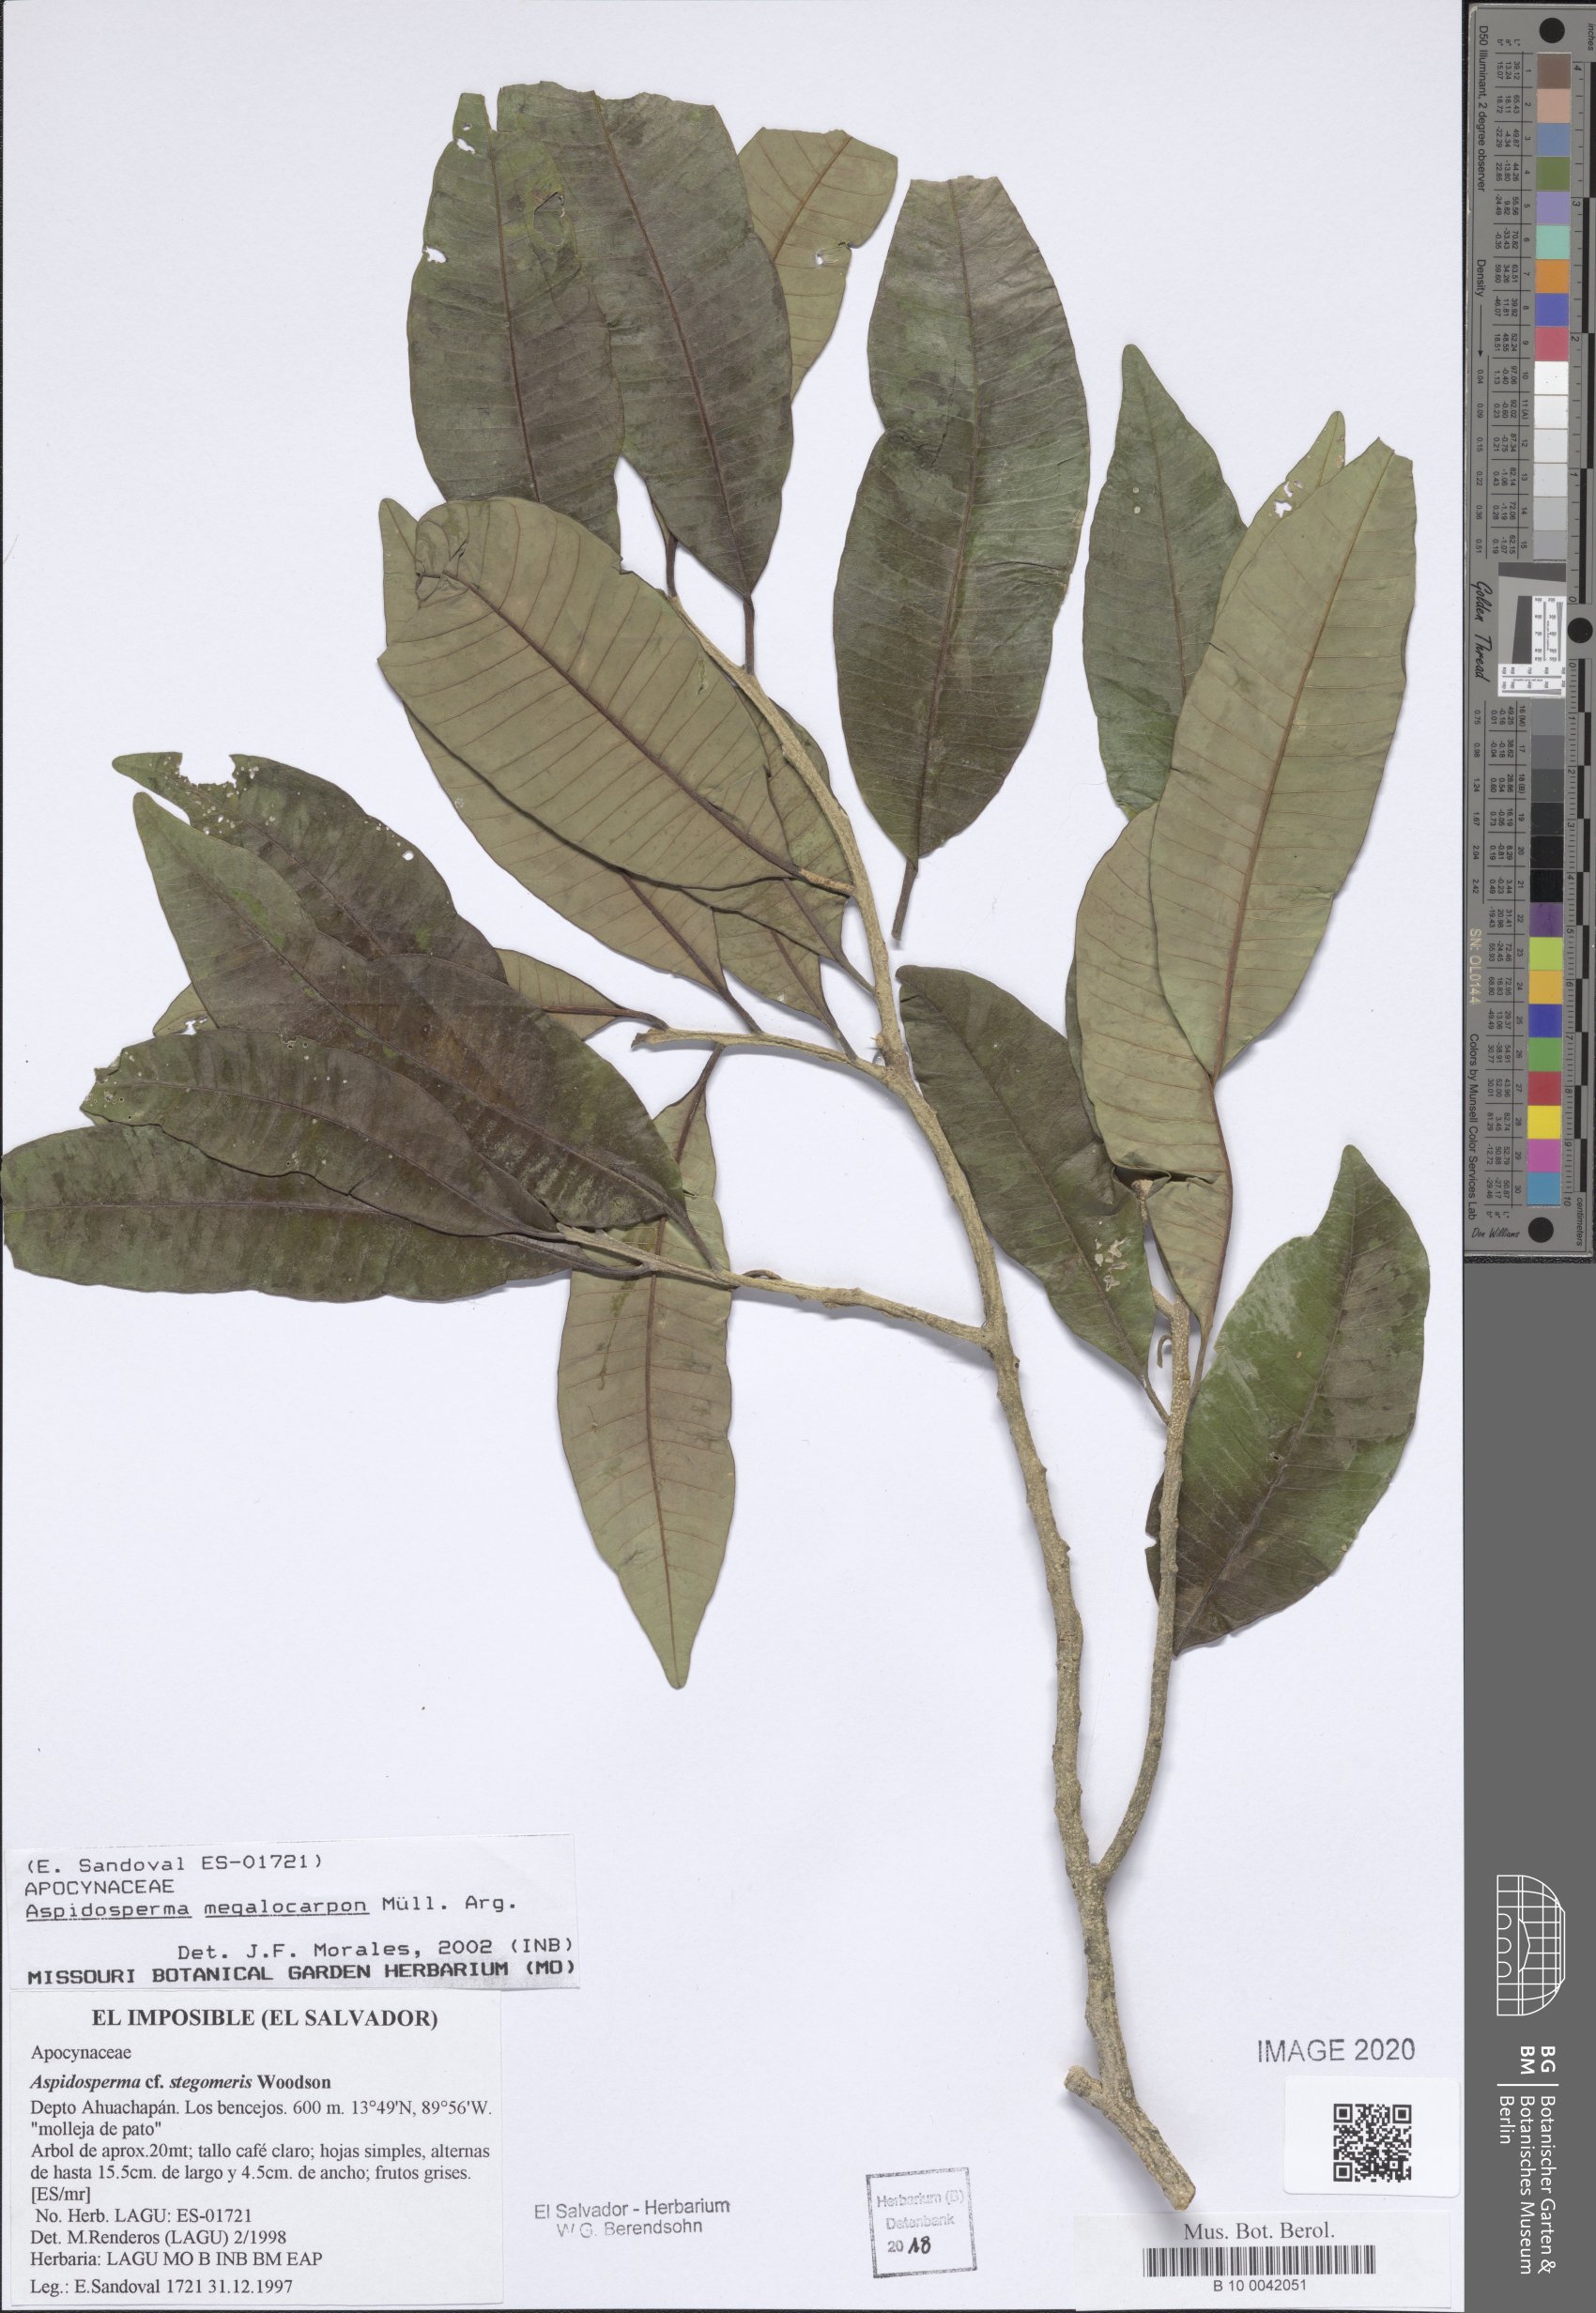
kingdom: Plantae
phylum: Tracheophyta
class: Magnoliopsida
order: Gentianales
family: Apocynaceae
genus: Aspidosperma
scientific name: Aspidosperma megalocarpon
